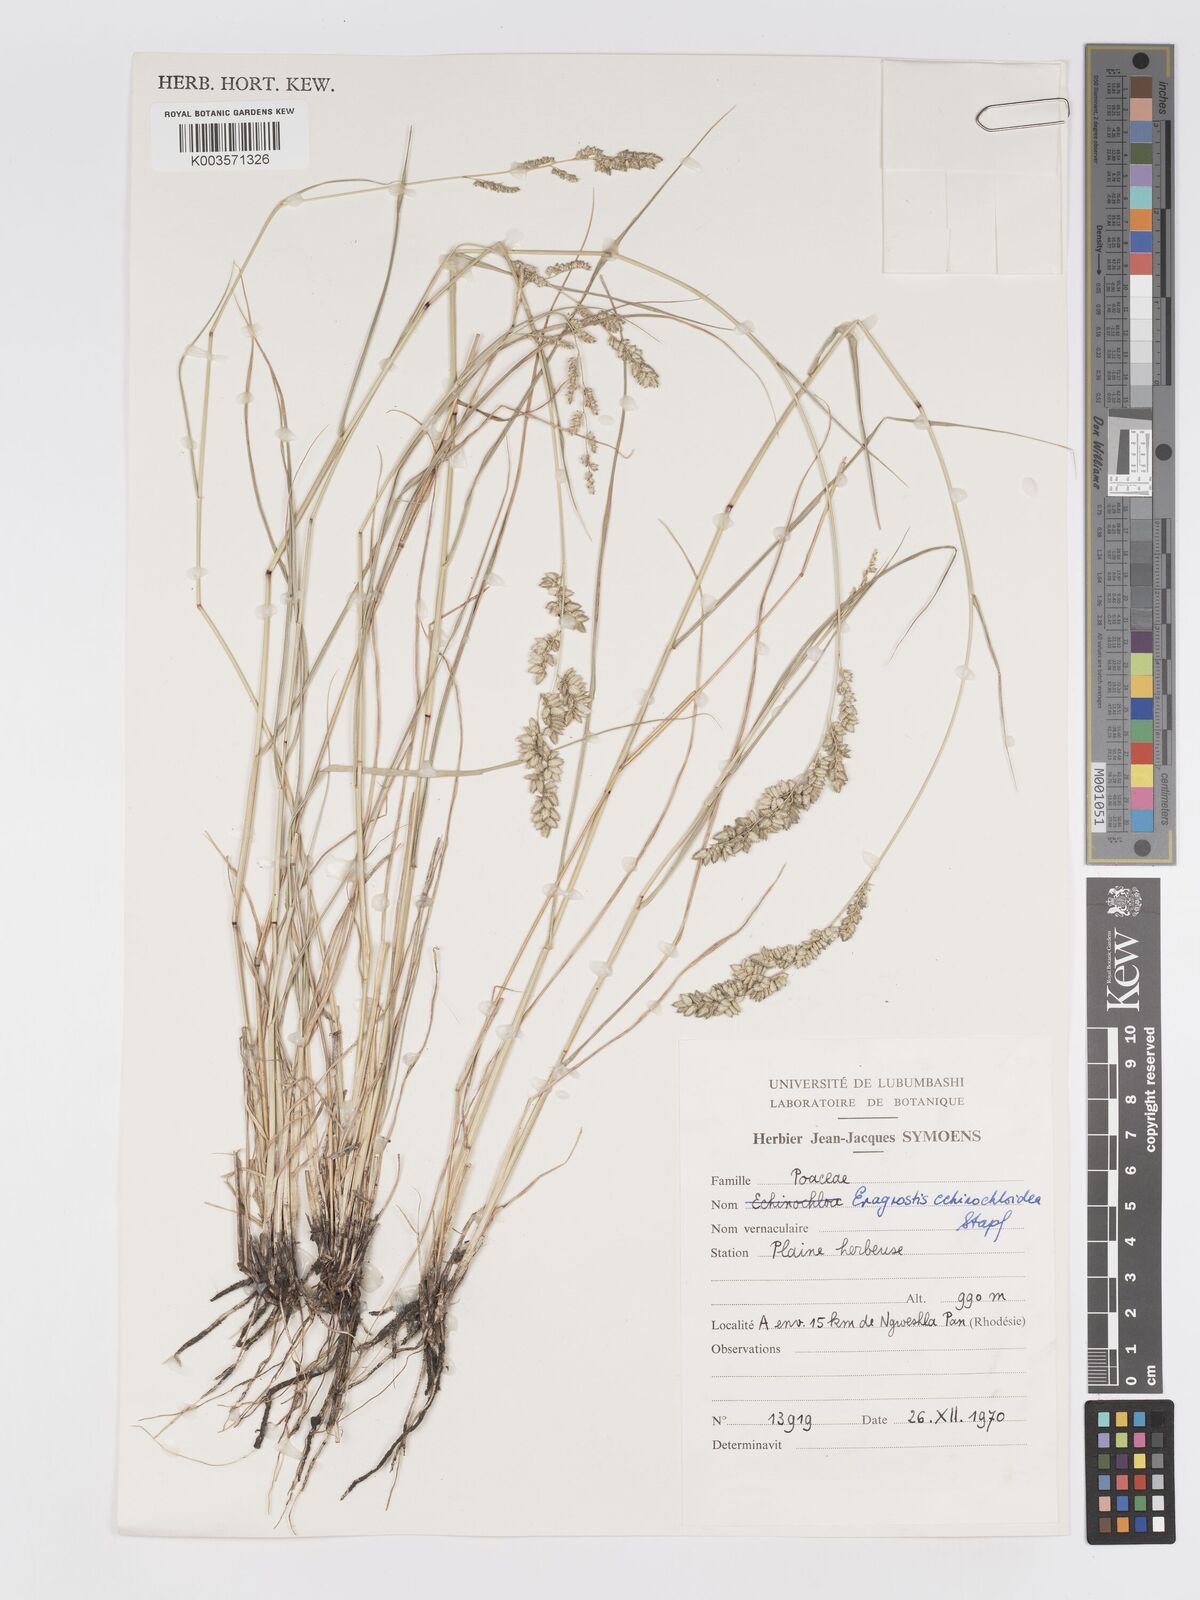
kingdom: Plantae
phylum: Tracheophyta
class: Liliopsida
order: Poales
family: Poaceae
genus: Eragrostis
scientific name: Eragrostis echinochloidea
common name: African lovegrass
